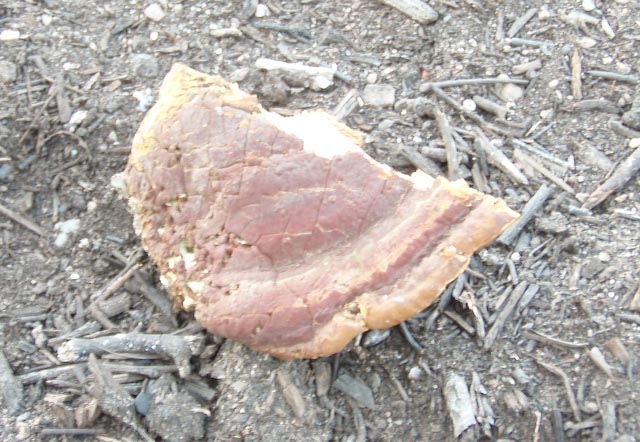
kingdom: Fungi
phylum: Basidiomycota
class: Agaricomycetes
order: Polyporales
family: Polyporaceae
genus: Ganoderma
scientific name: Ganoderma resinaceum
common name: gyldenbrun lakporesvamp
